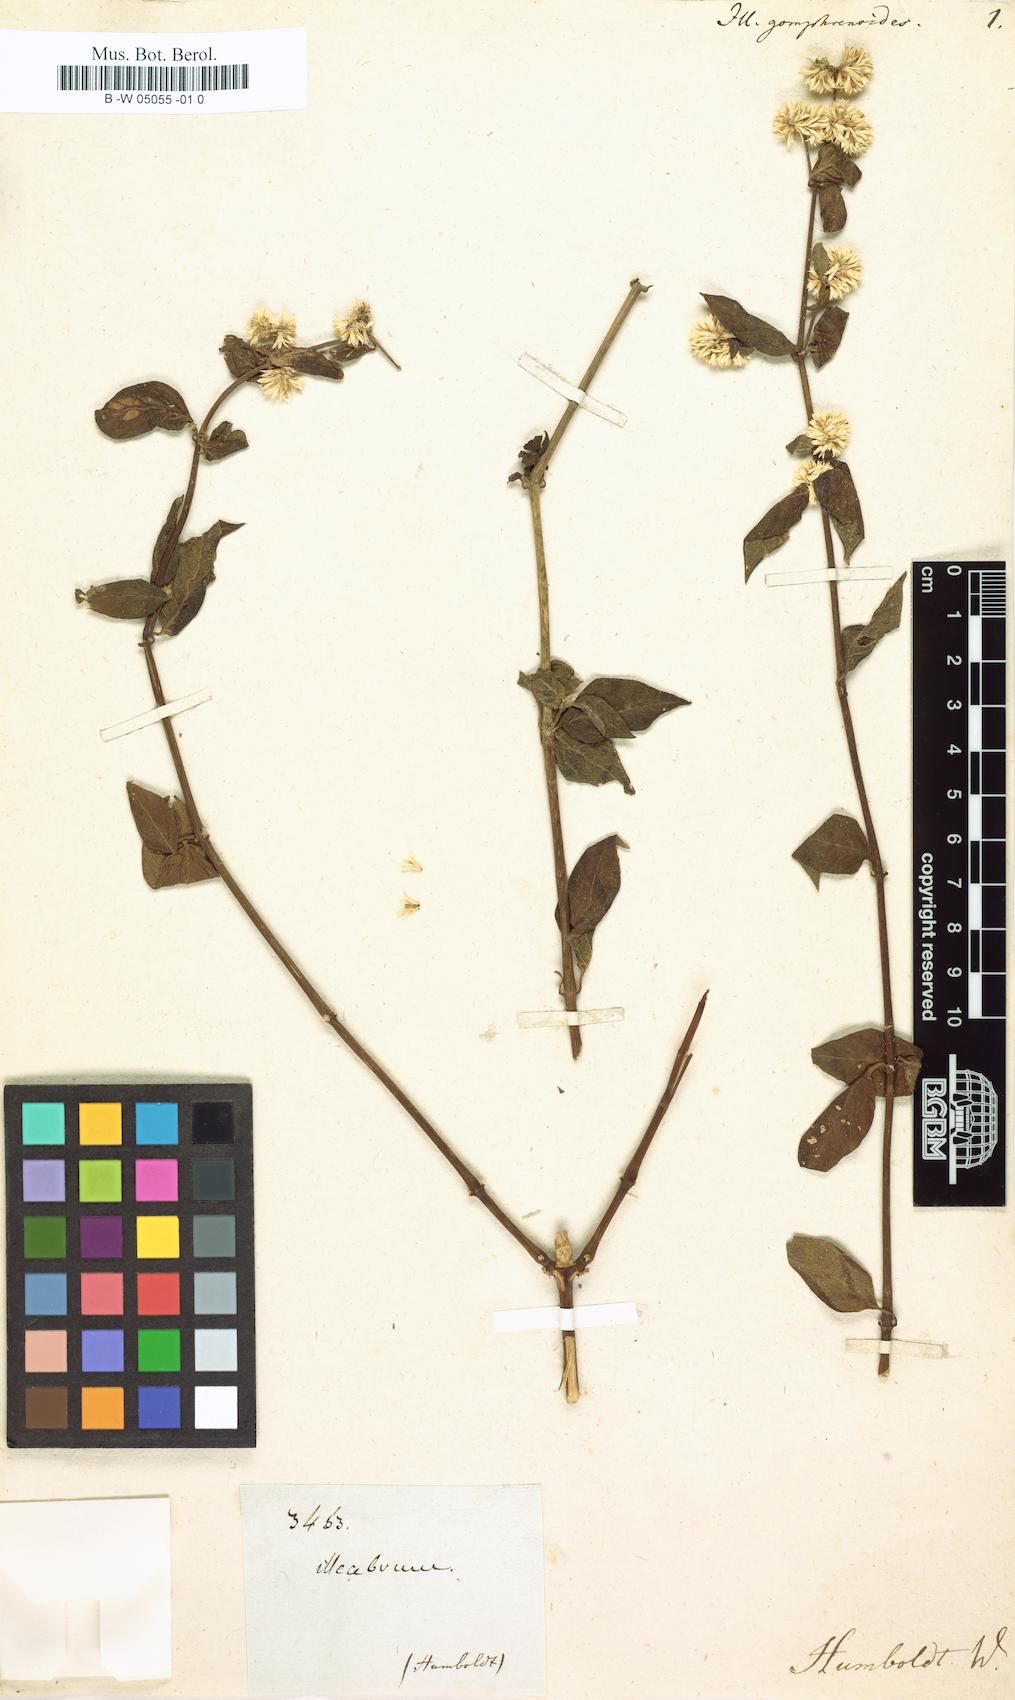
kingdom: Plantae
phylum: Tracheophyta
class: Magnoliopsida
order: Caryophyllales
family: Amaranthaceae
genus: Alternanthera
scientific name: Alternanthera porrigens
